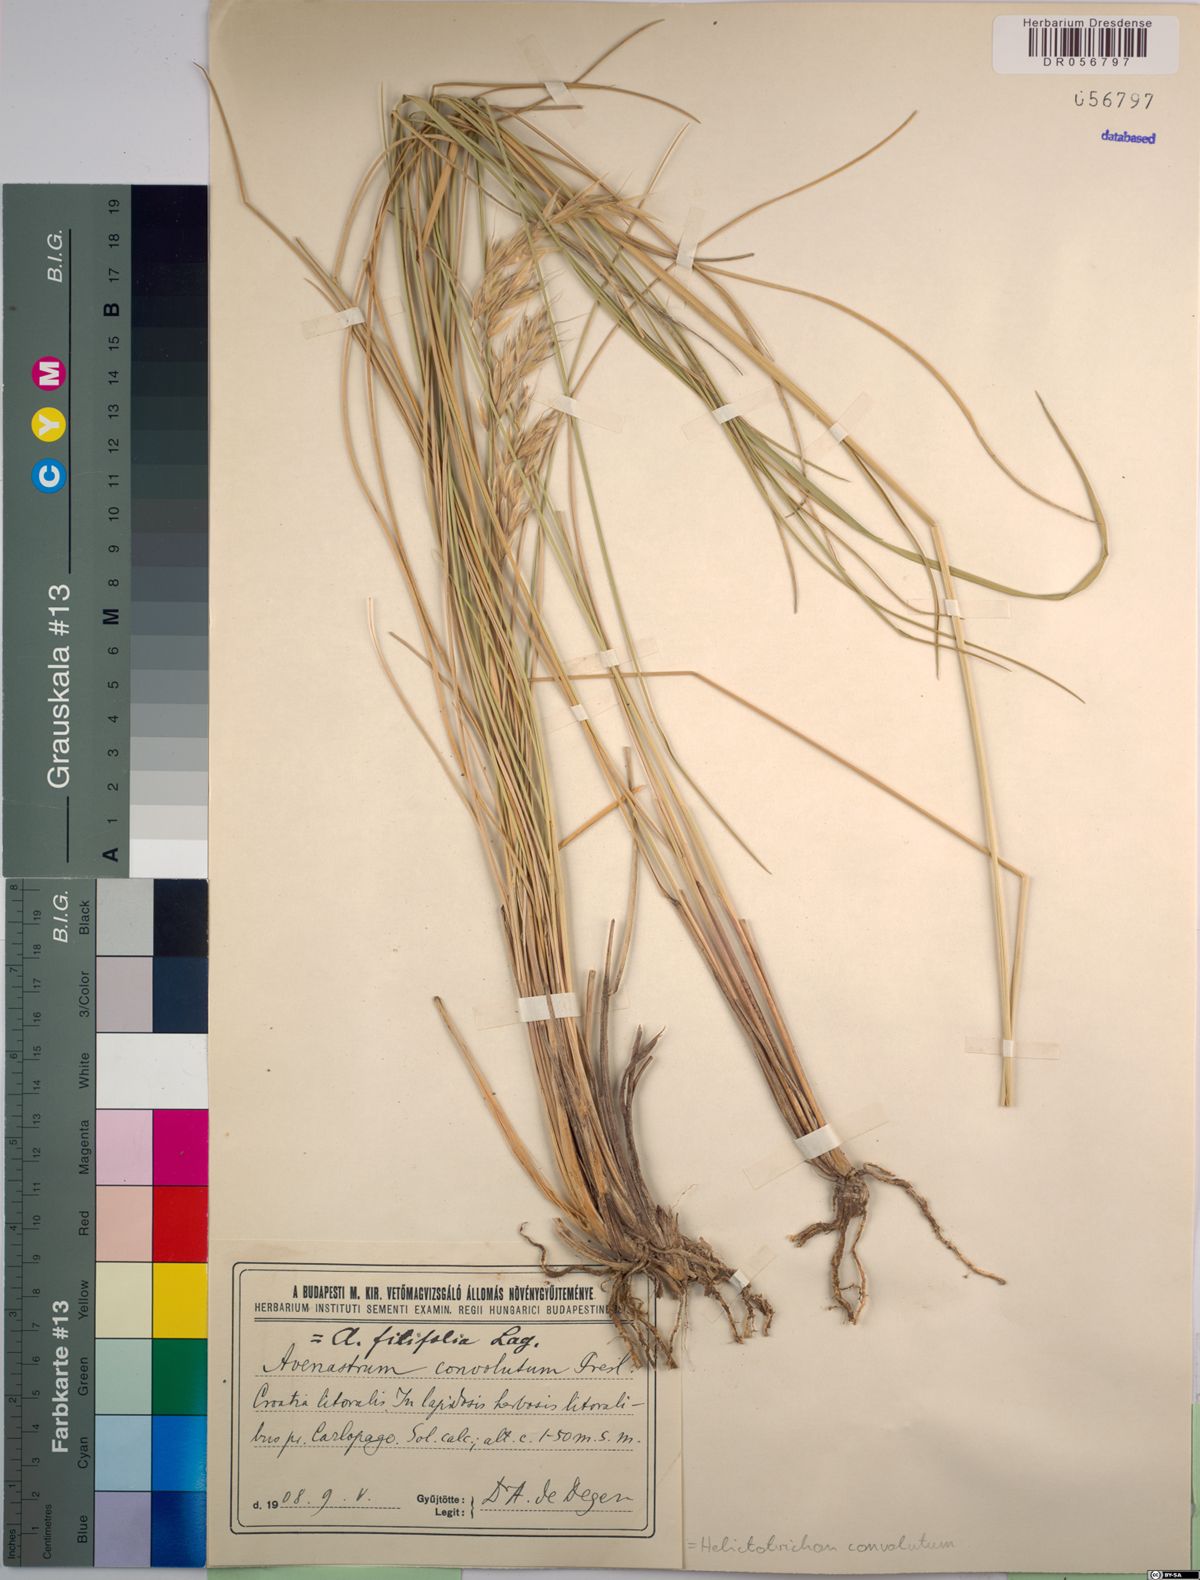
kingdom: Plantae
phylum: Tracheophyta
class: Liliopsida
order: Poales
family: Poaceae
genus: Helictotrichon
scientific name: Helictotrichon convolutum
